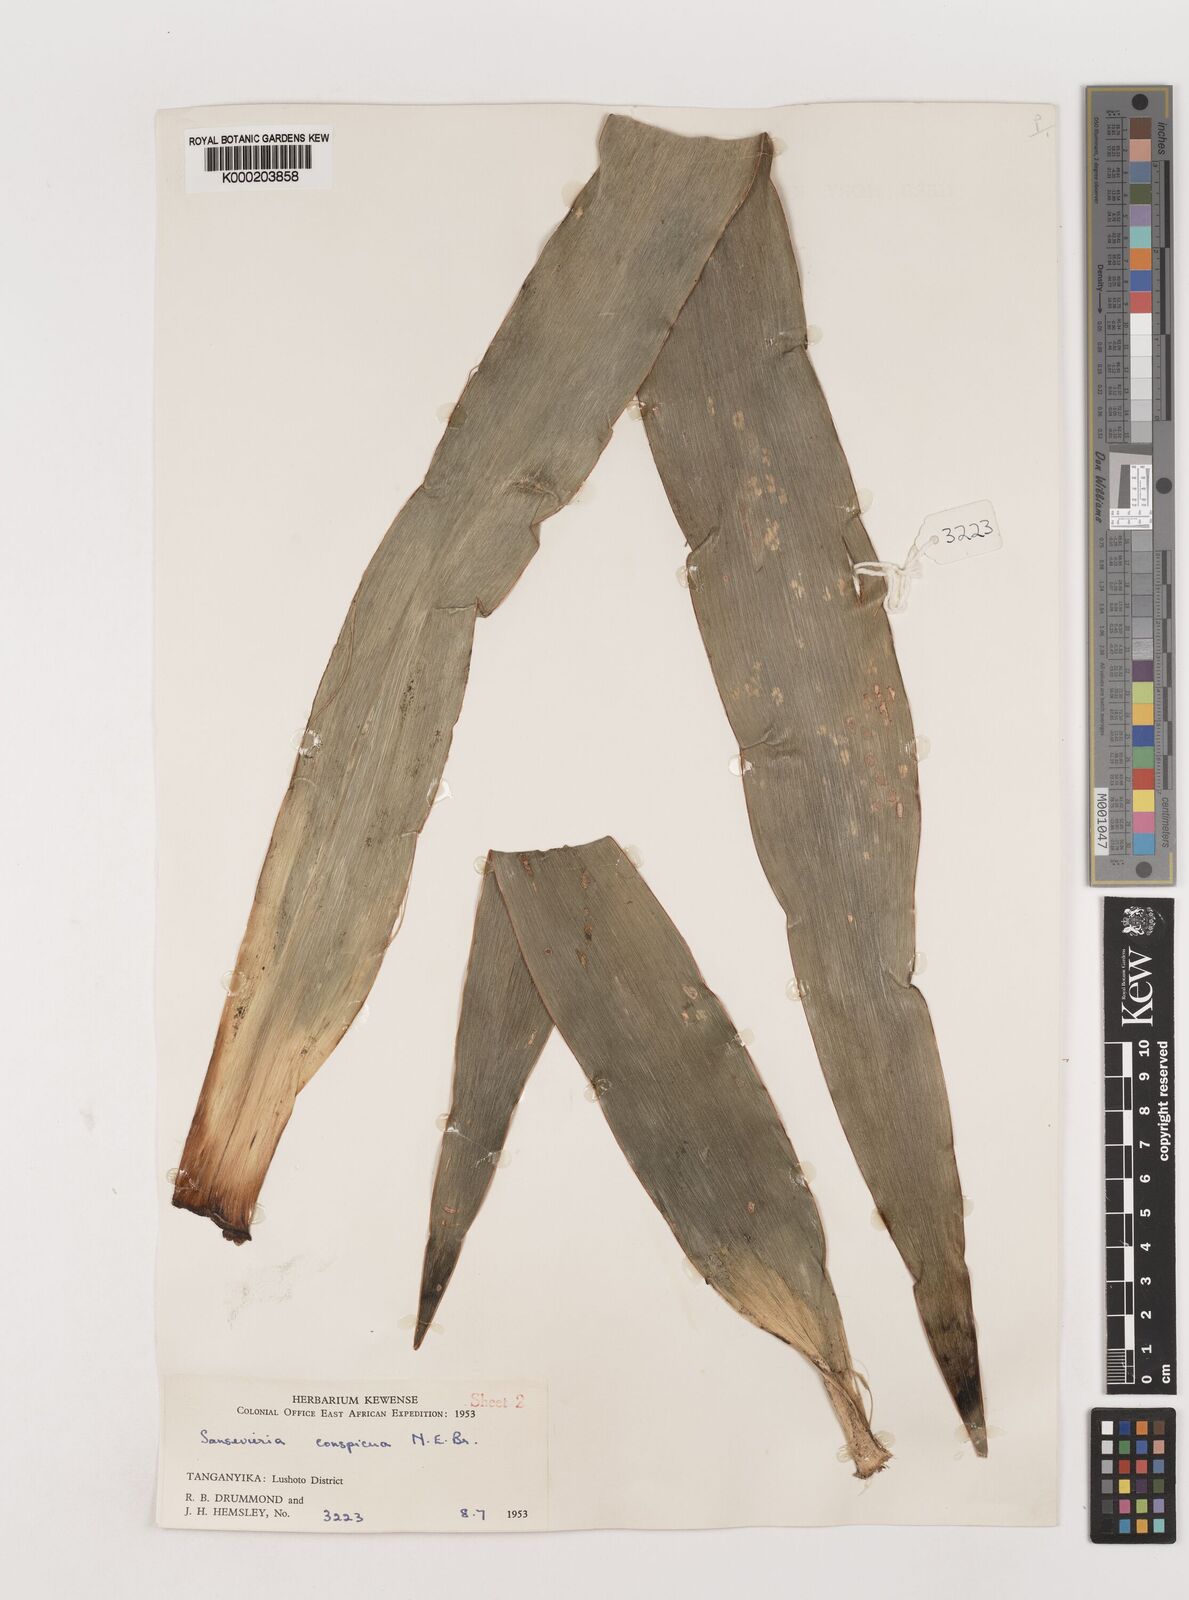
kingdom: Plantae
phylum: Tracheophyta
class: Liliopsida
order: Asparagales
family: Asparagaceae
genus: Dracaena
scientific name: Dracaena conspicua
